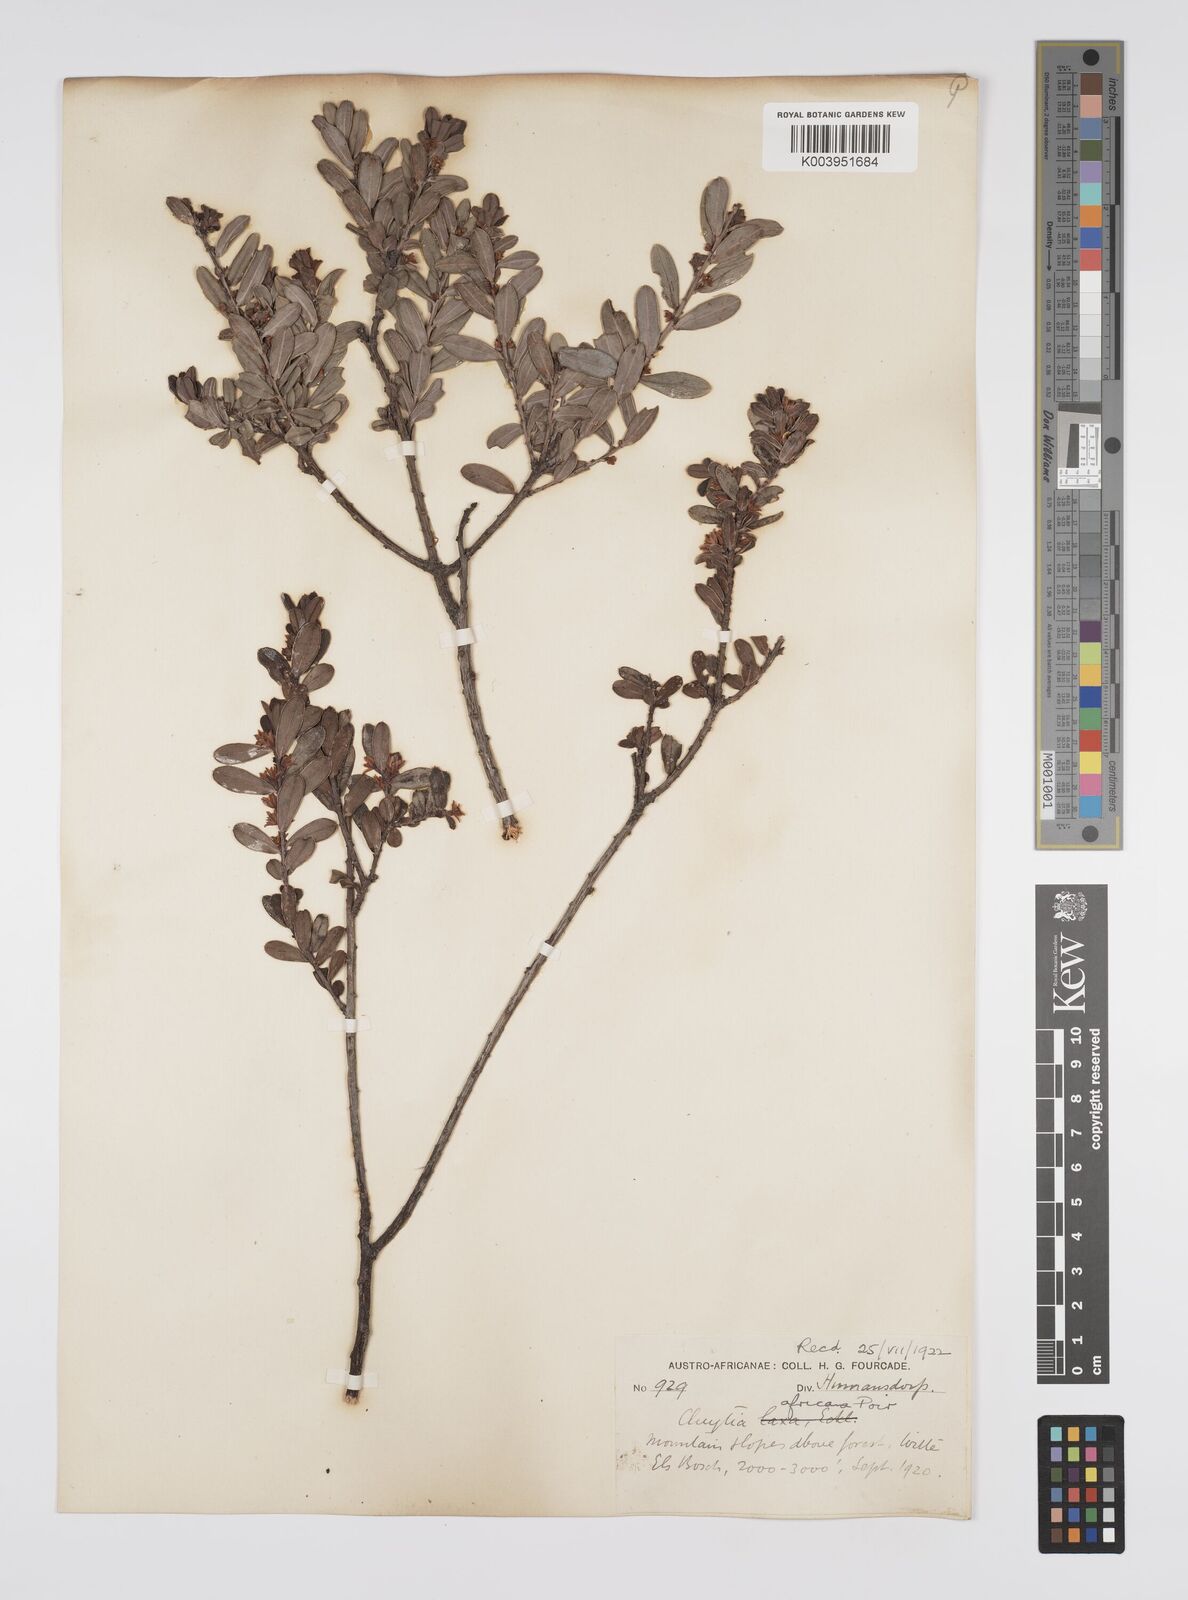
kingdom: Plantae
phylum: Tracheophyta
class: Magnoliopsida
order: Malpighiales
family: Peraceae
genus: Clutia
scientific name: Clutia africana
